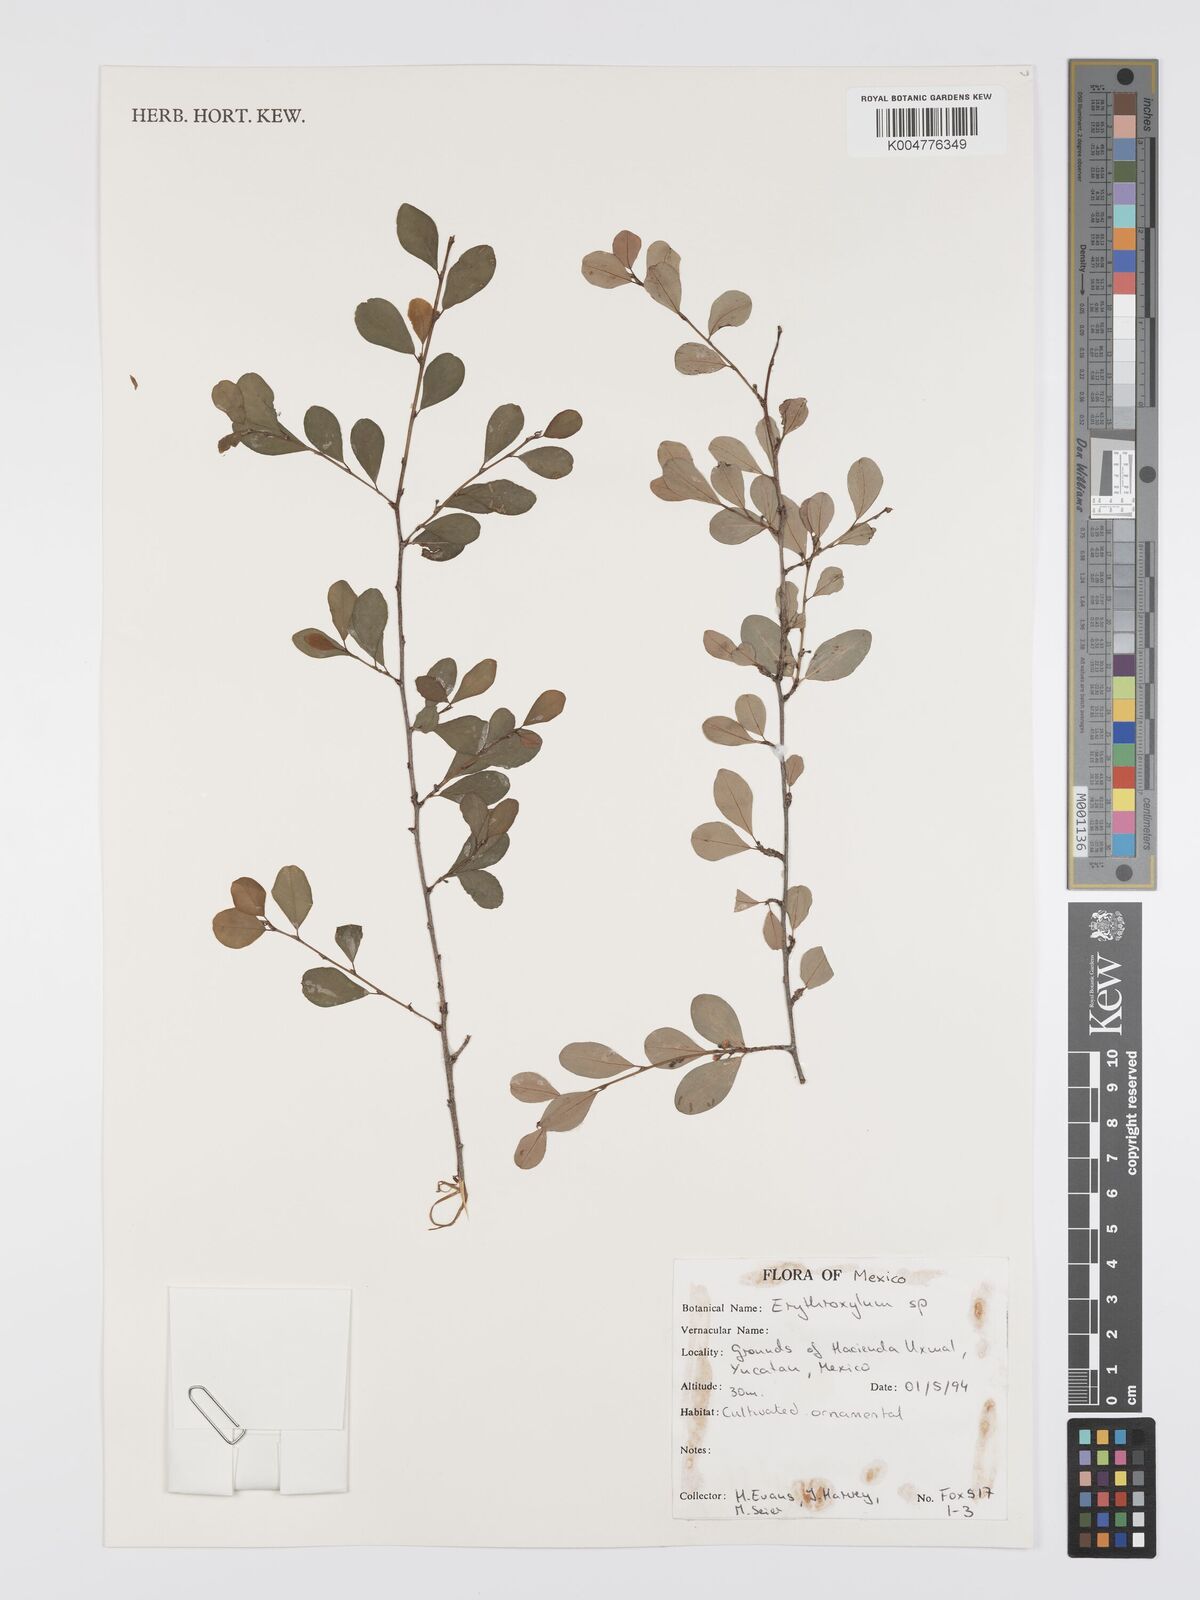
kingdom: Plantae
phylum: Tracheophyta
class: Magnoliopsida
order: Malpighiales
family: Erythroxylaceae
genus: Erythroxylum
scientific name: Erythroxylum
